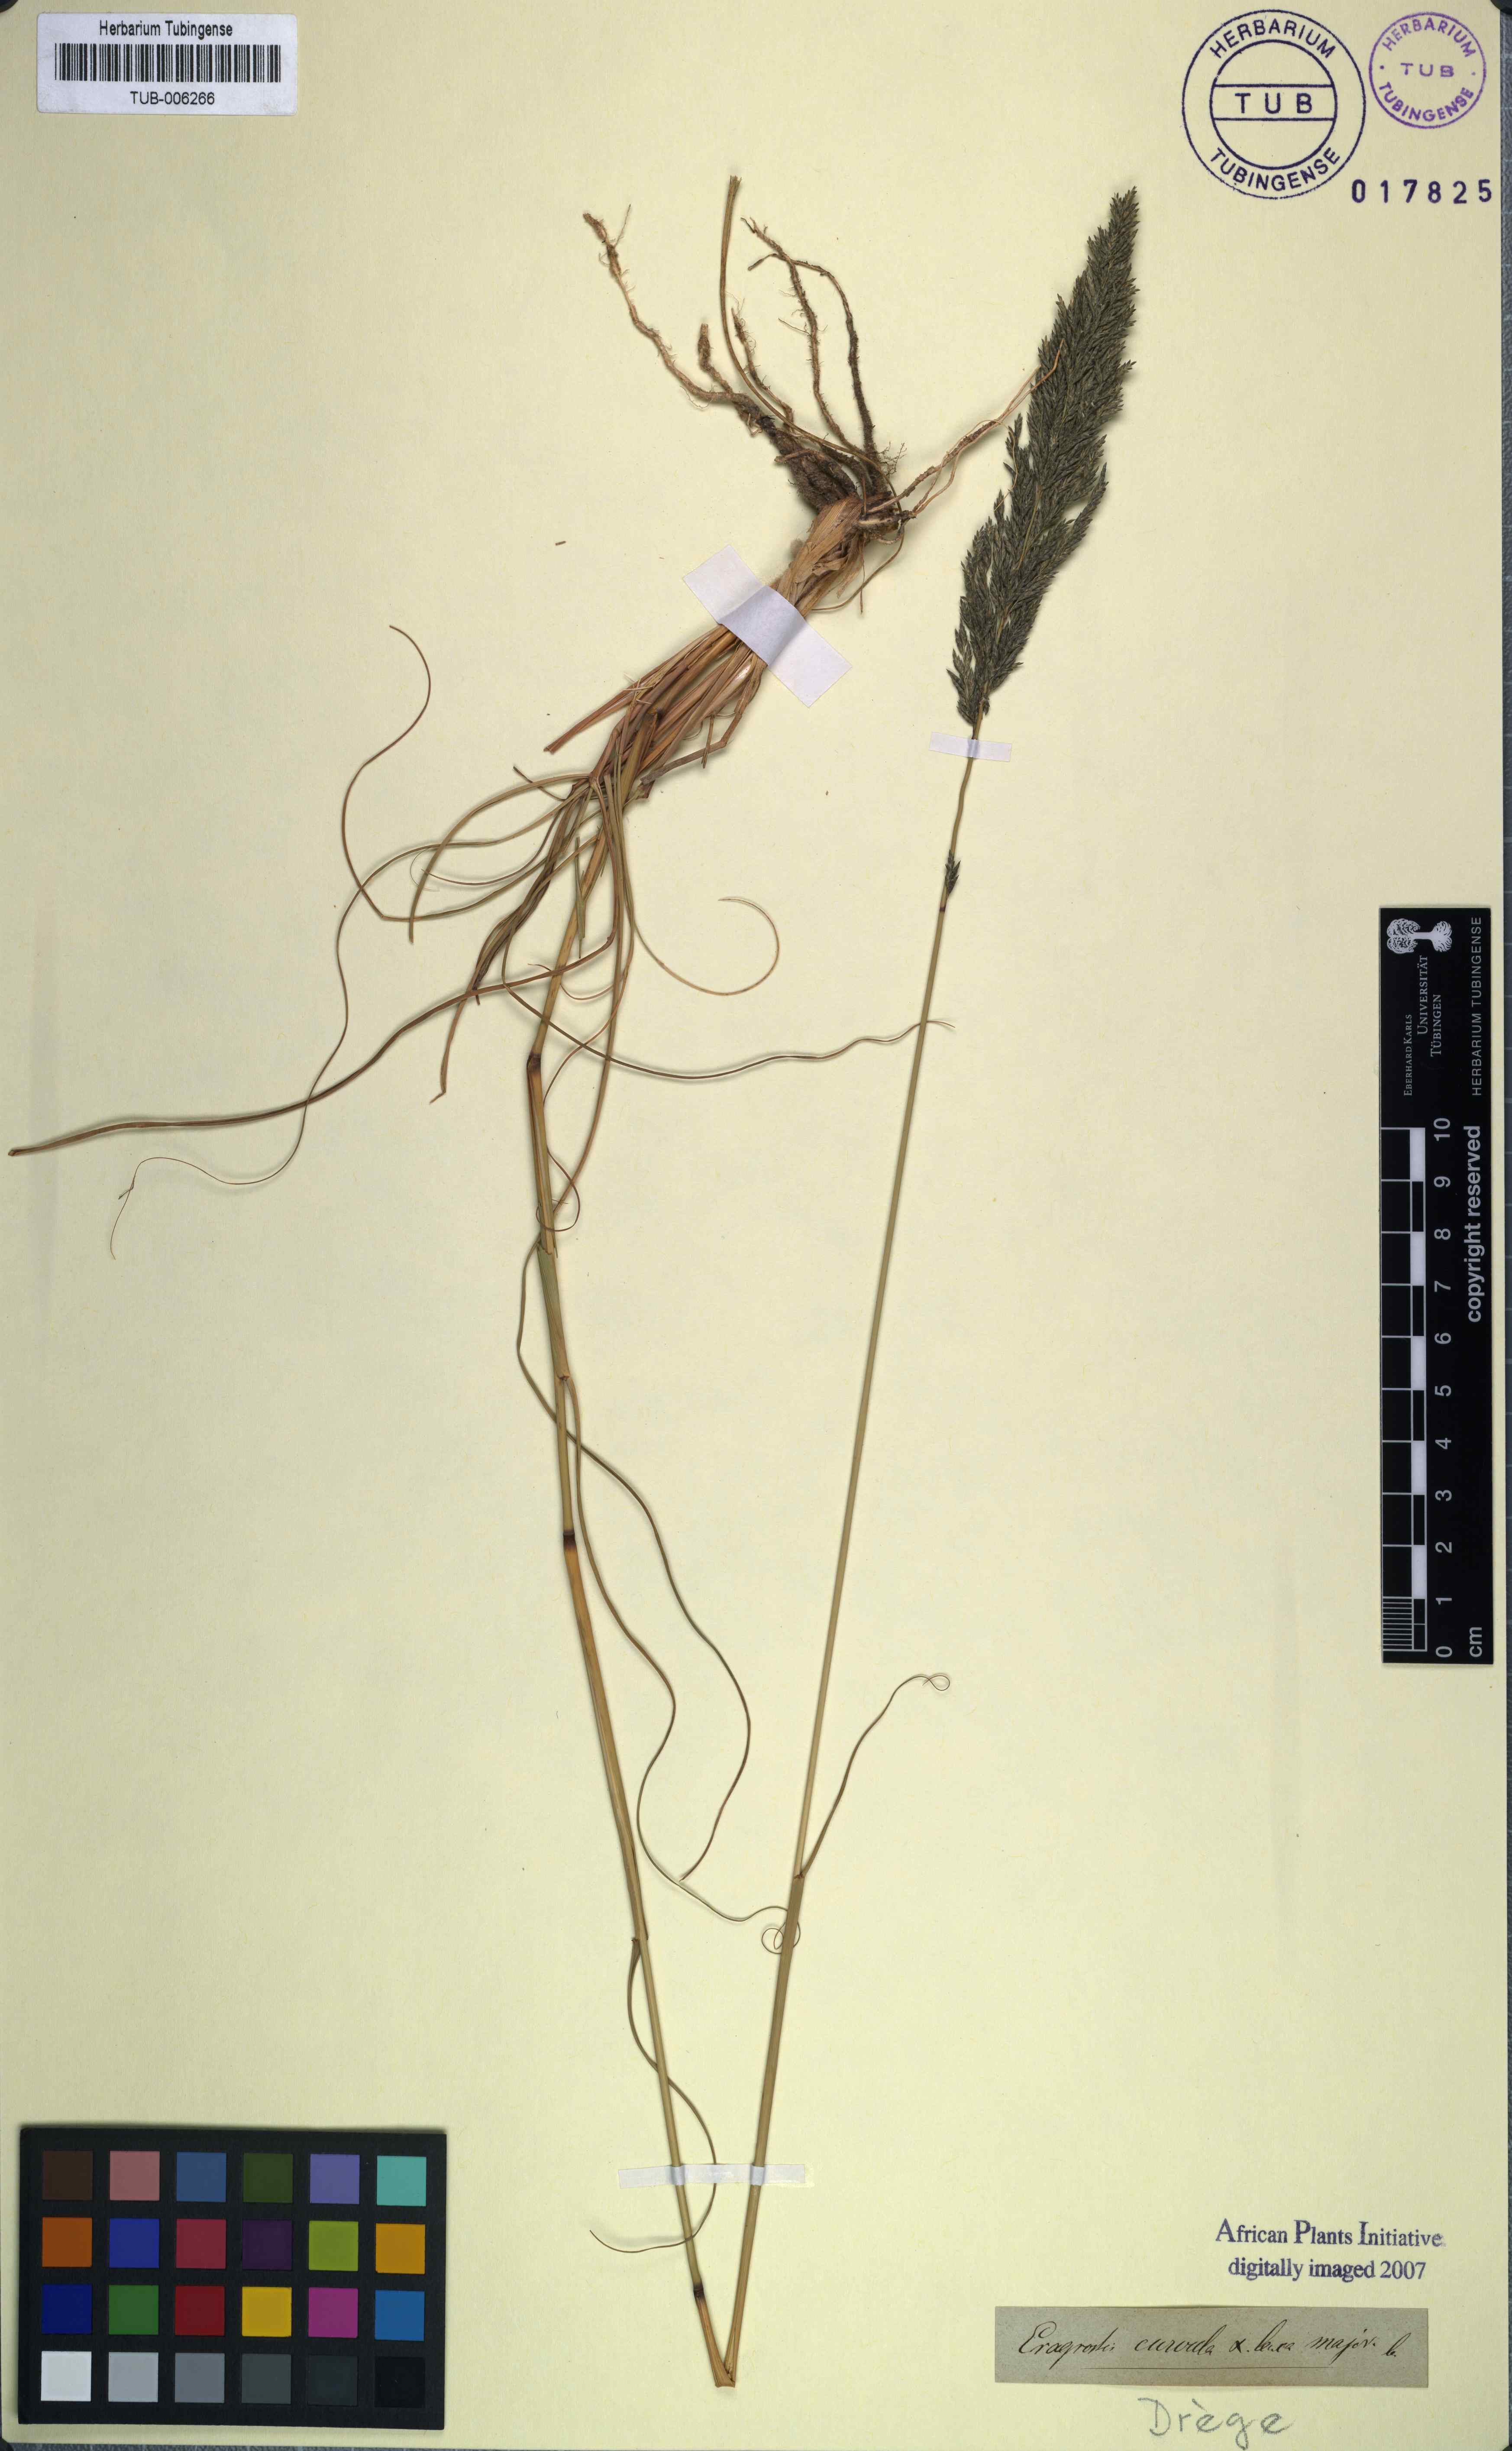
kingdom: Plantae
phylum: Tracheophyta
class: Liliopsida
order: Poales
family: Poaceae
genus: Eragrostis
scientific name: Eragrostis curvula
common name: African love-grass
